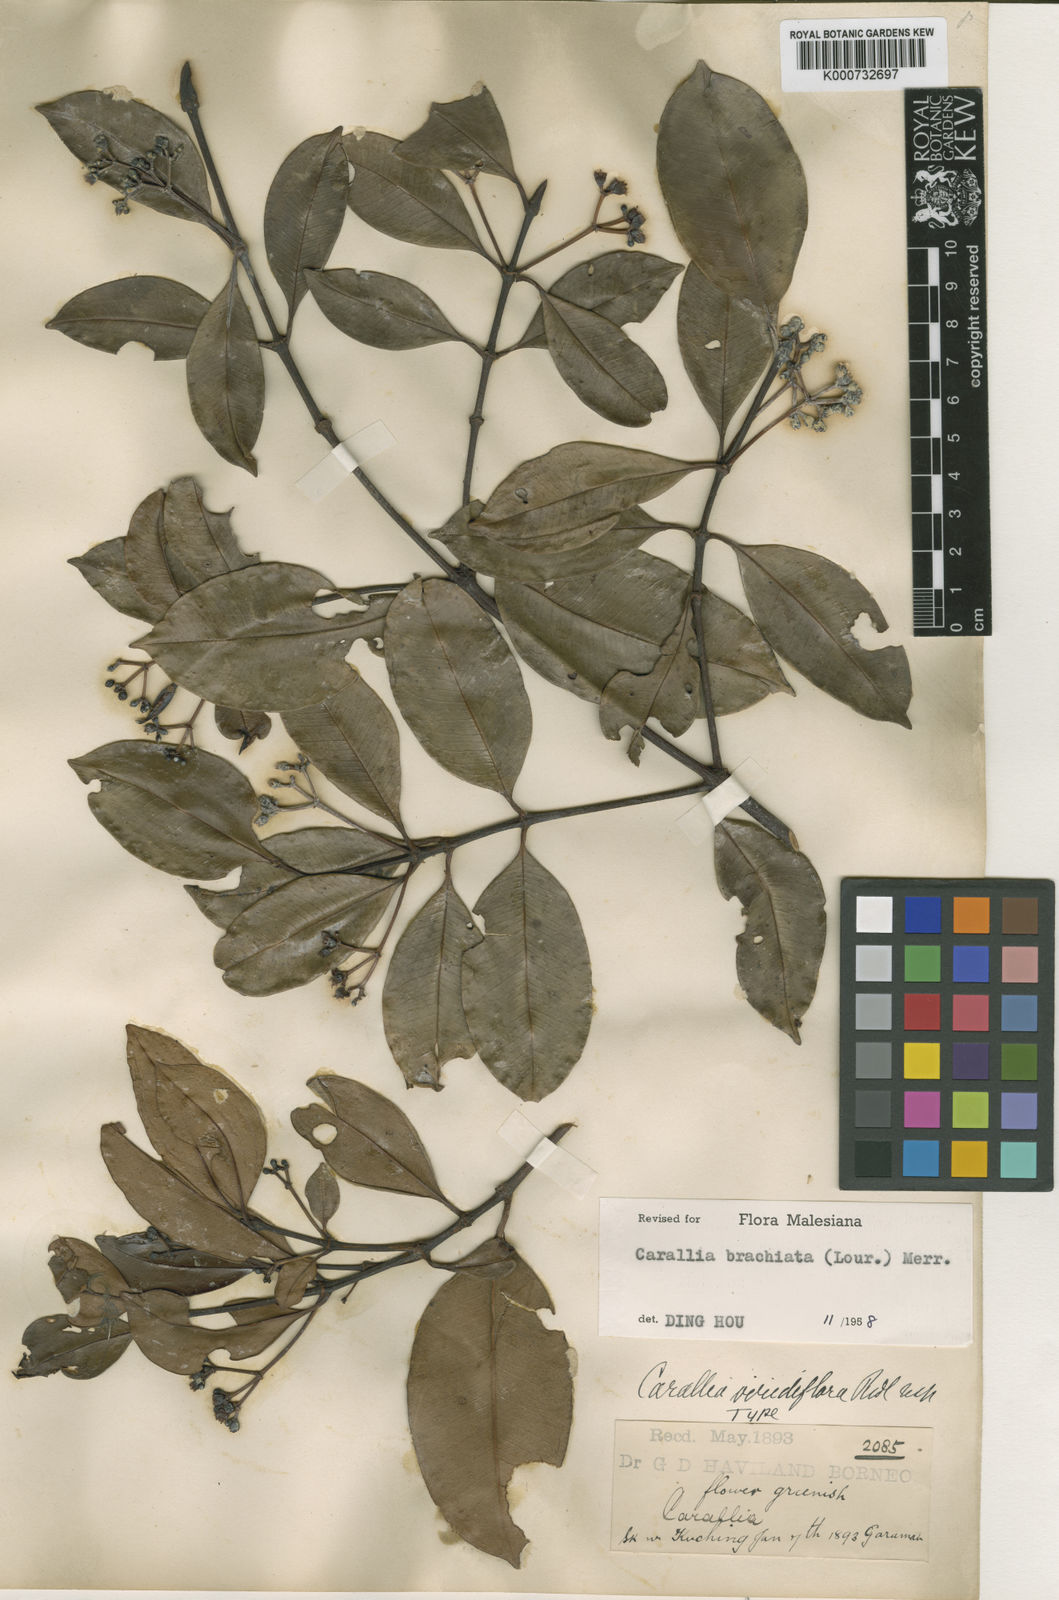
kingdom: Plantae
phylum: Tracheophyta
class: Magnoliopsida
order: Malpighiales
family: Rhizophoraceae
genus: Carallia
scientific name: Carallia brachiata
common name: Carallawood
